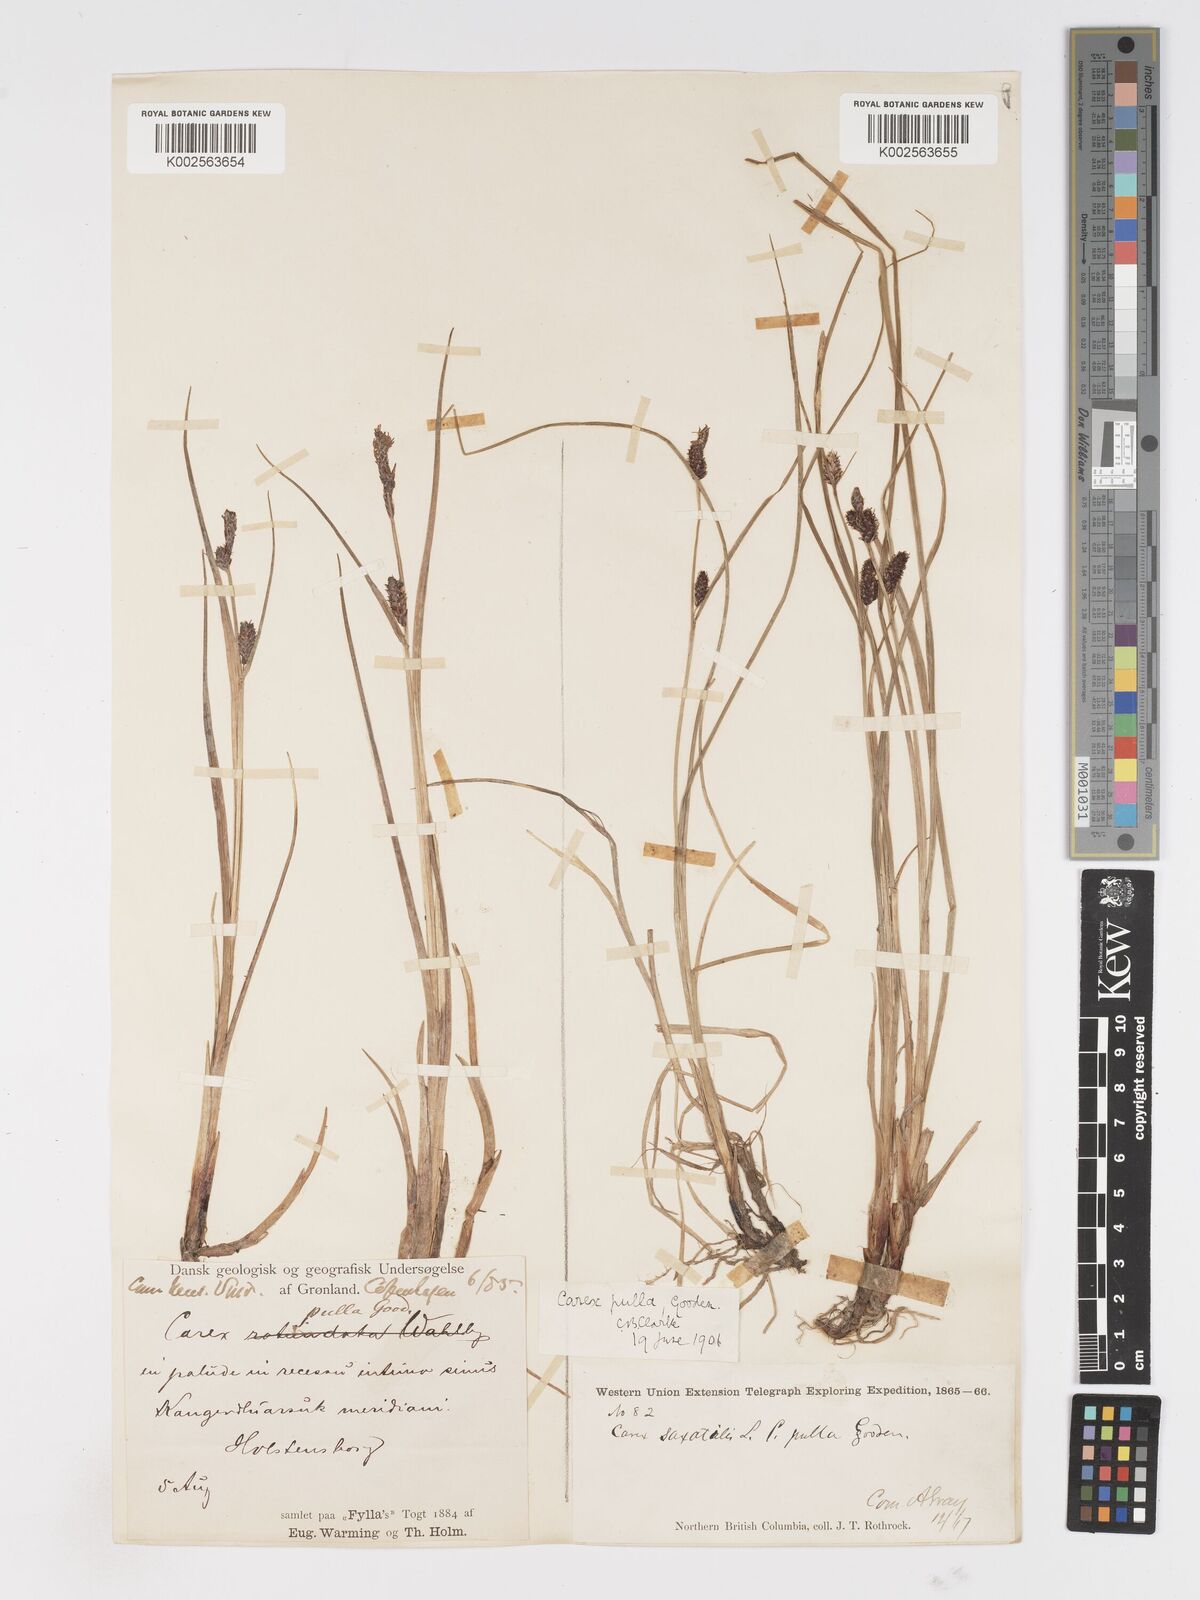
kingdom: Plantae
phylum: Tracheophyta
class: Liliopsida
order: Poales
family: Cyperaceae
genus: Carex
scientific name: Carex saxatilis
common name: Russet sedge
